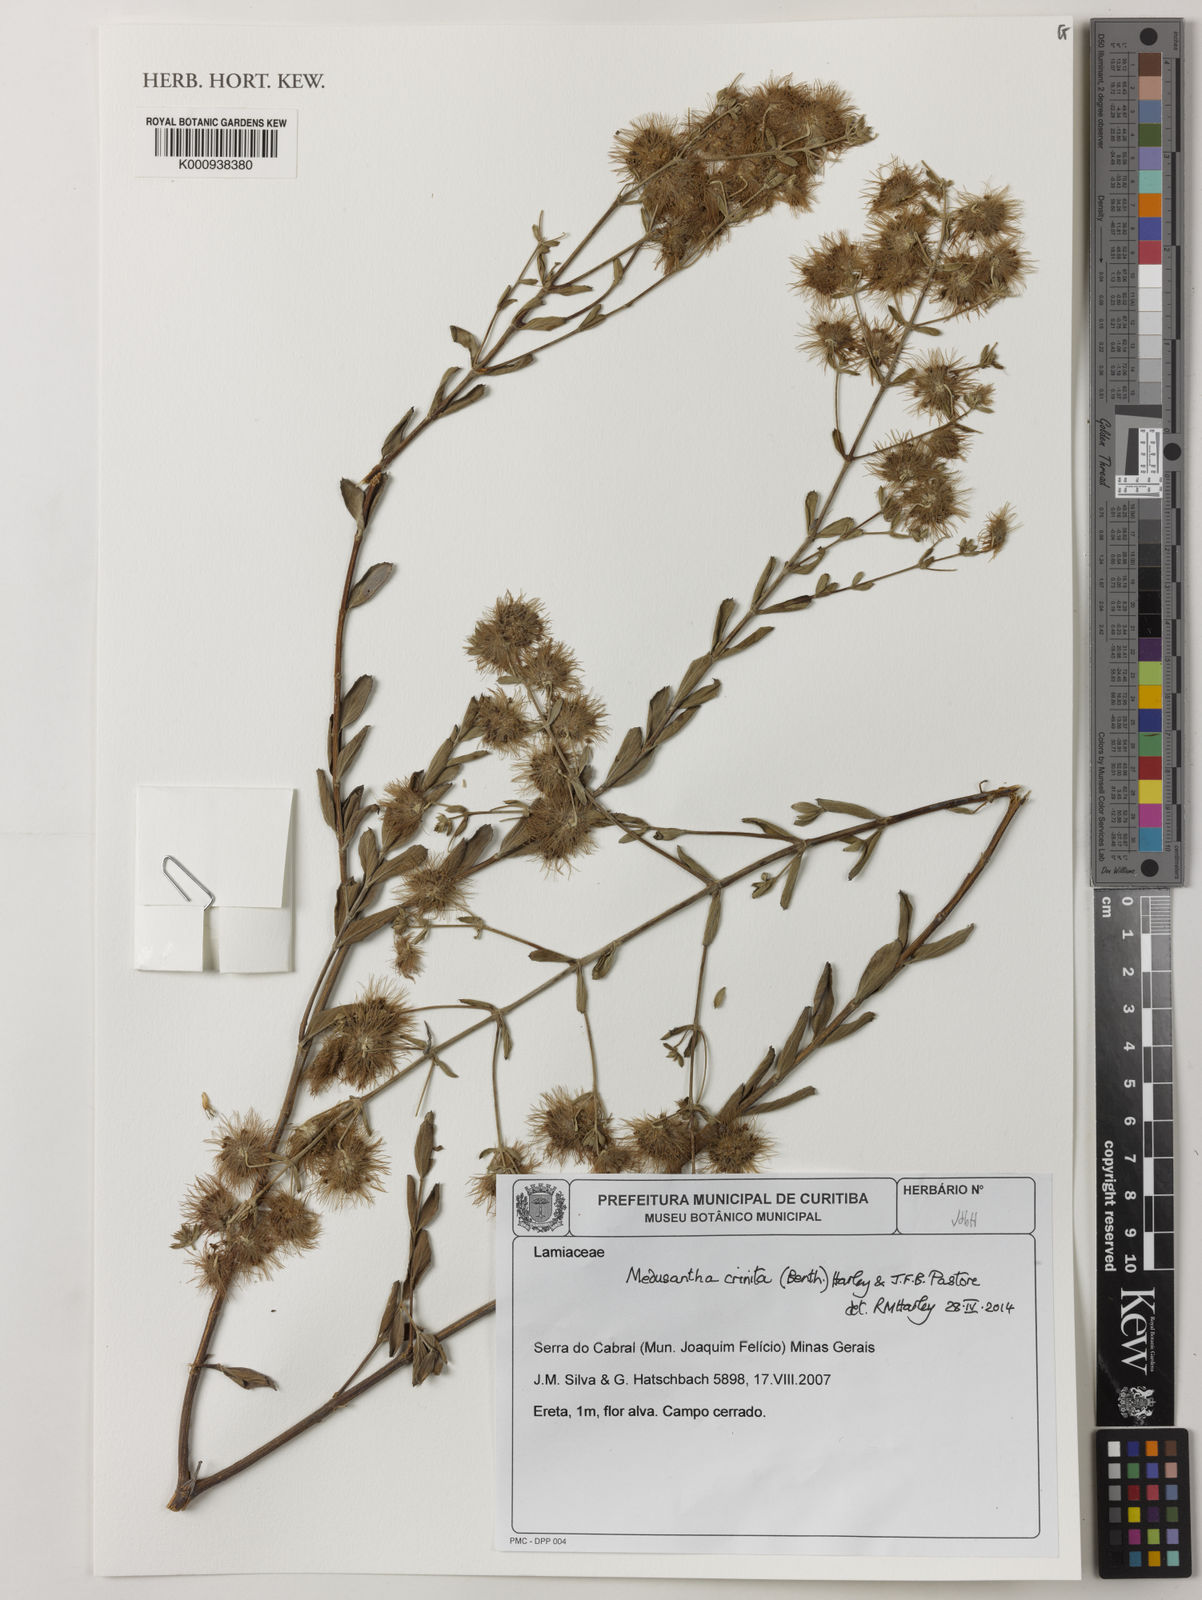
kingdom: Plantae
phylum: Tracheophyta
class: Magnoliopsida
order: Lamiales
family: Lamiaceae
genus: Medusantha
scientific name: Medusantha crinita
